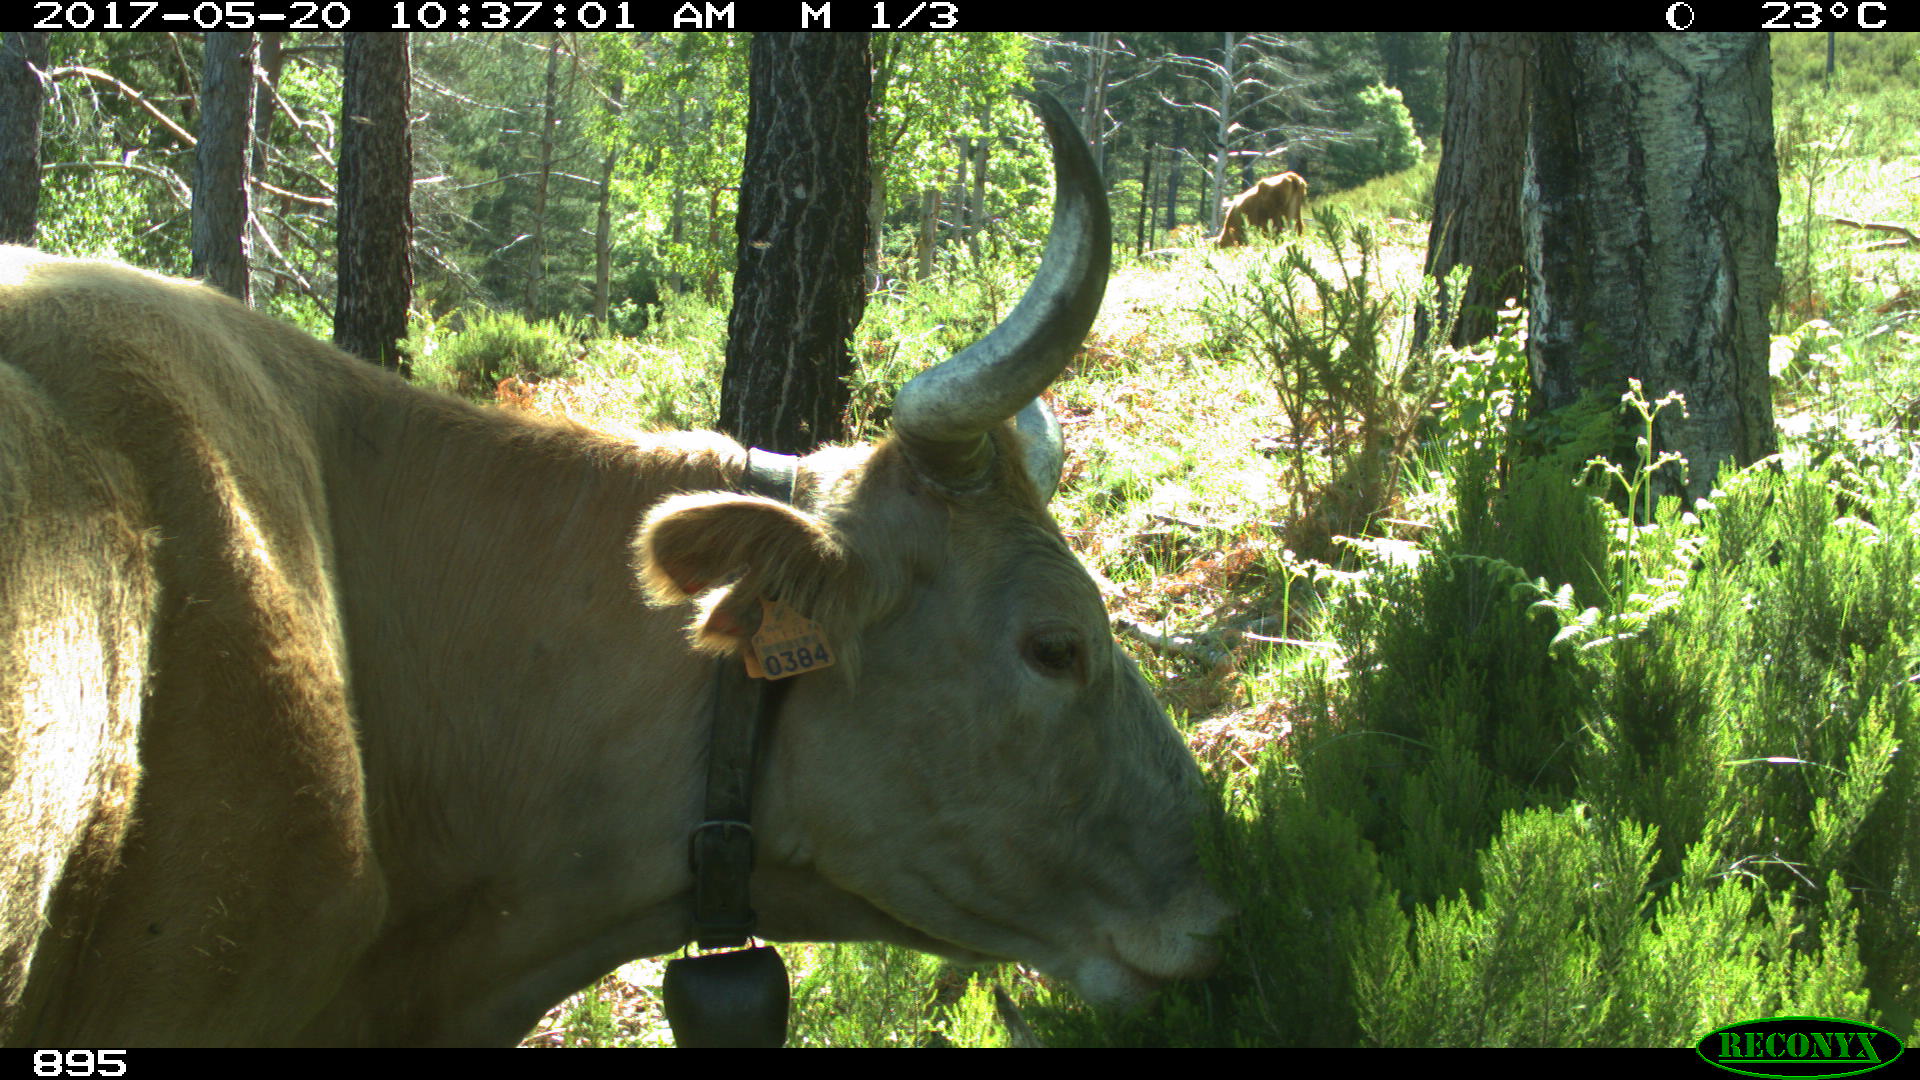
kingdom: Animalia
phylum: Chordata
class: Mammalia
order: Artiodactyla
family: Bovidae
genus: Bos
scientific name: Bos taurus
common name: Domesticated cattle
